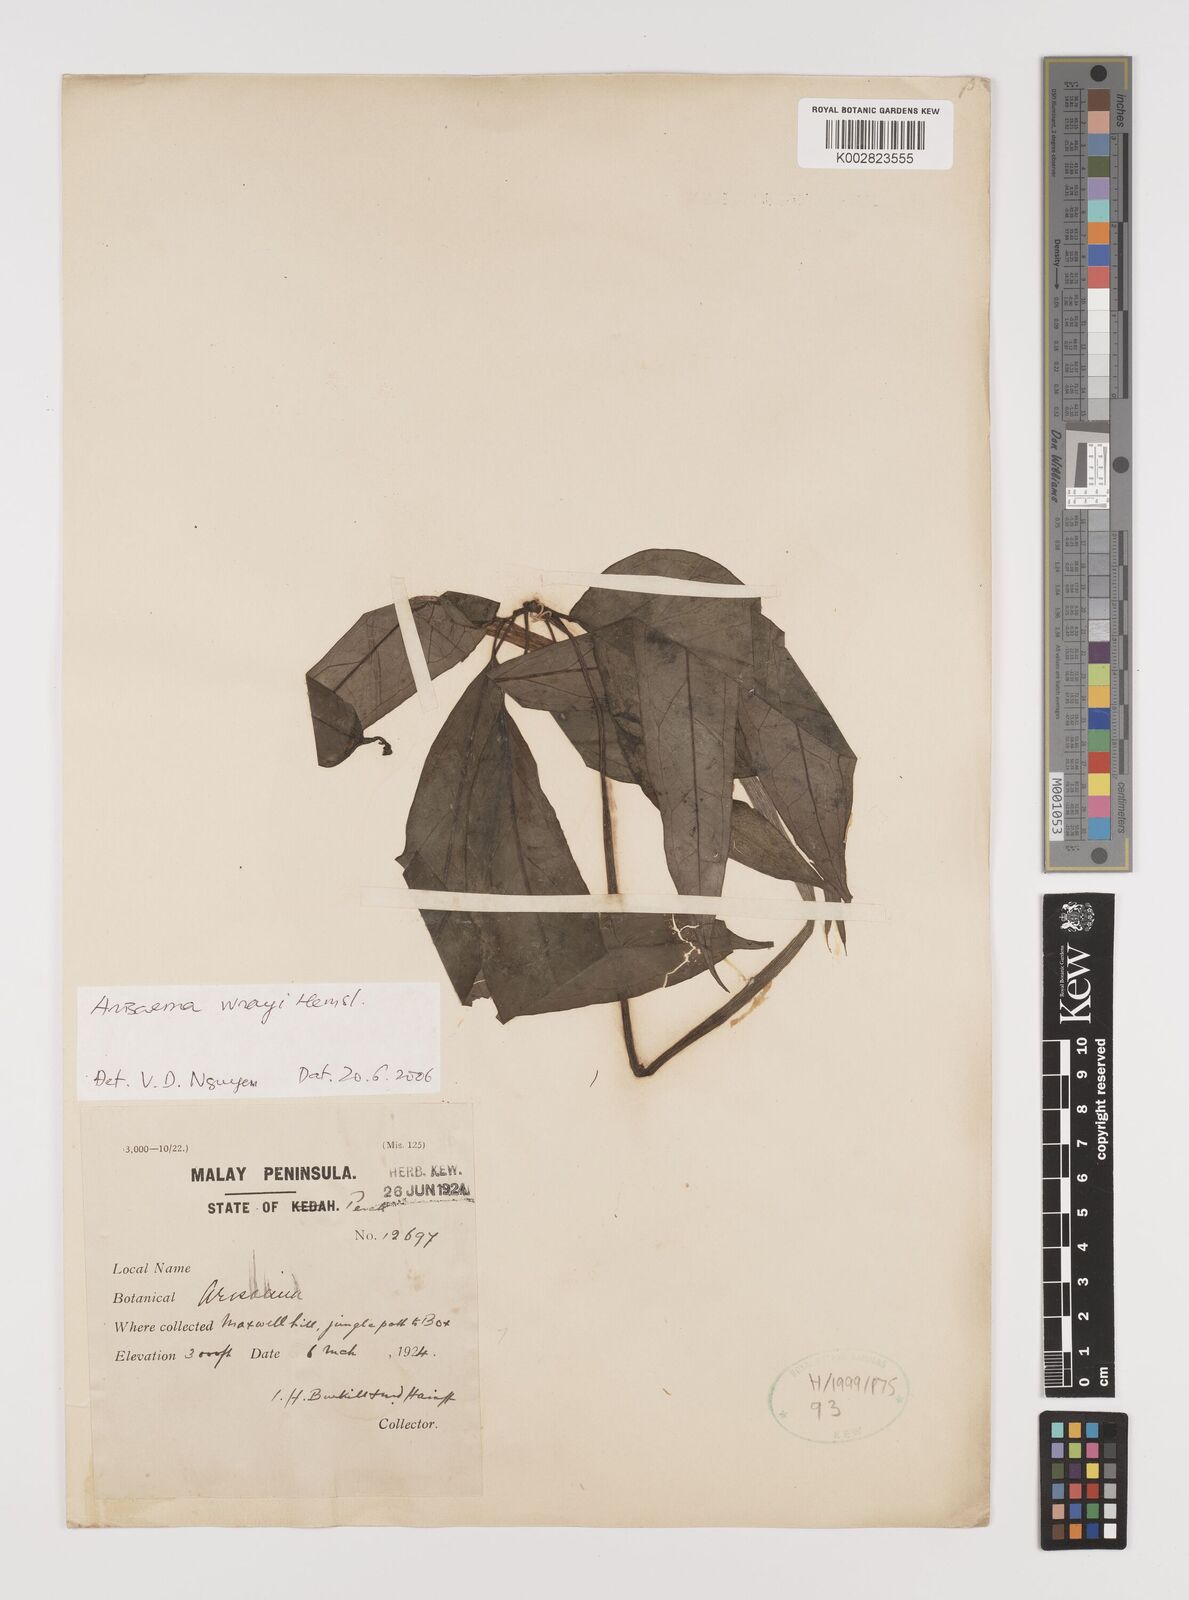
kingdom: Plantae
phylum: Tracheophyta
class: Liliopsida
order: Alismatales
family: Araceae
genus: Arisaema
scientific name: Arisaema wrayi
